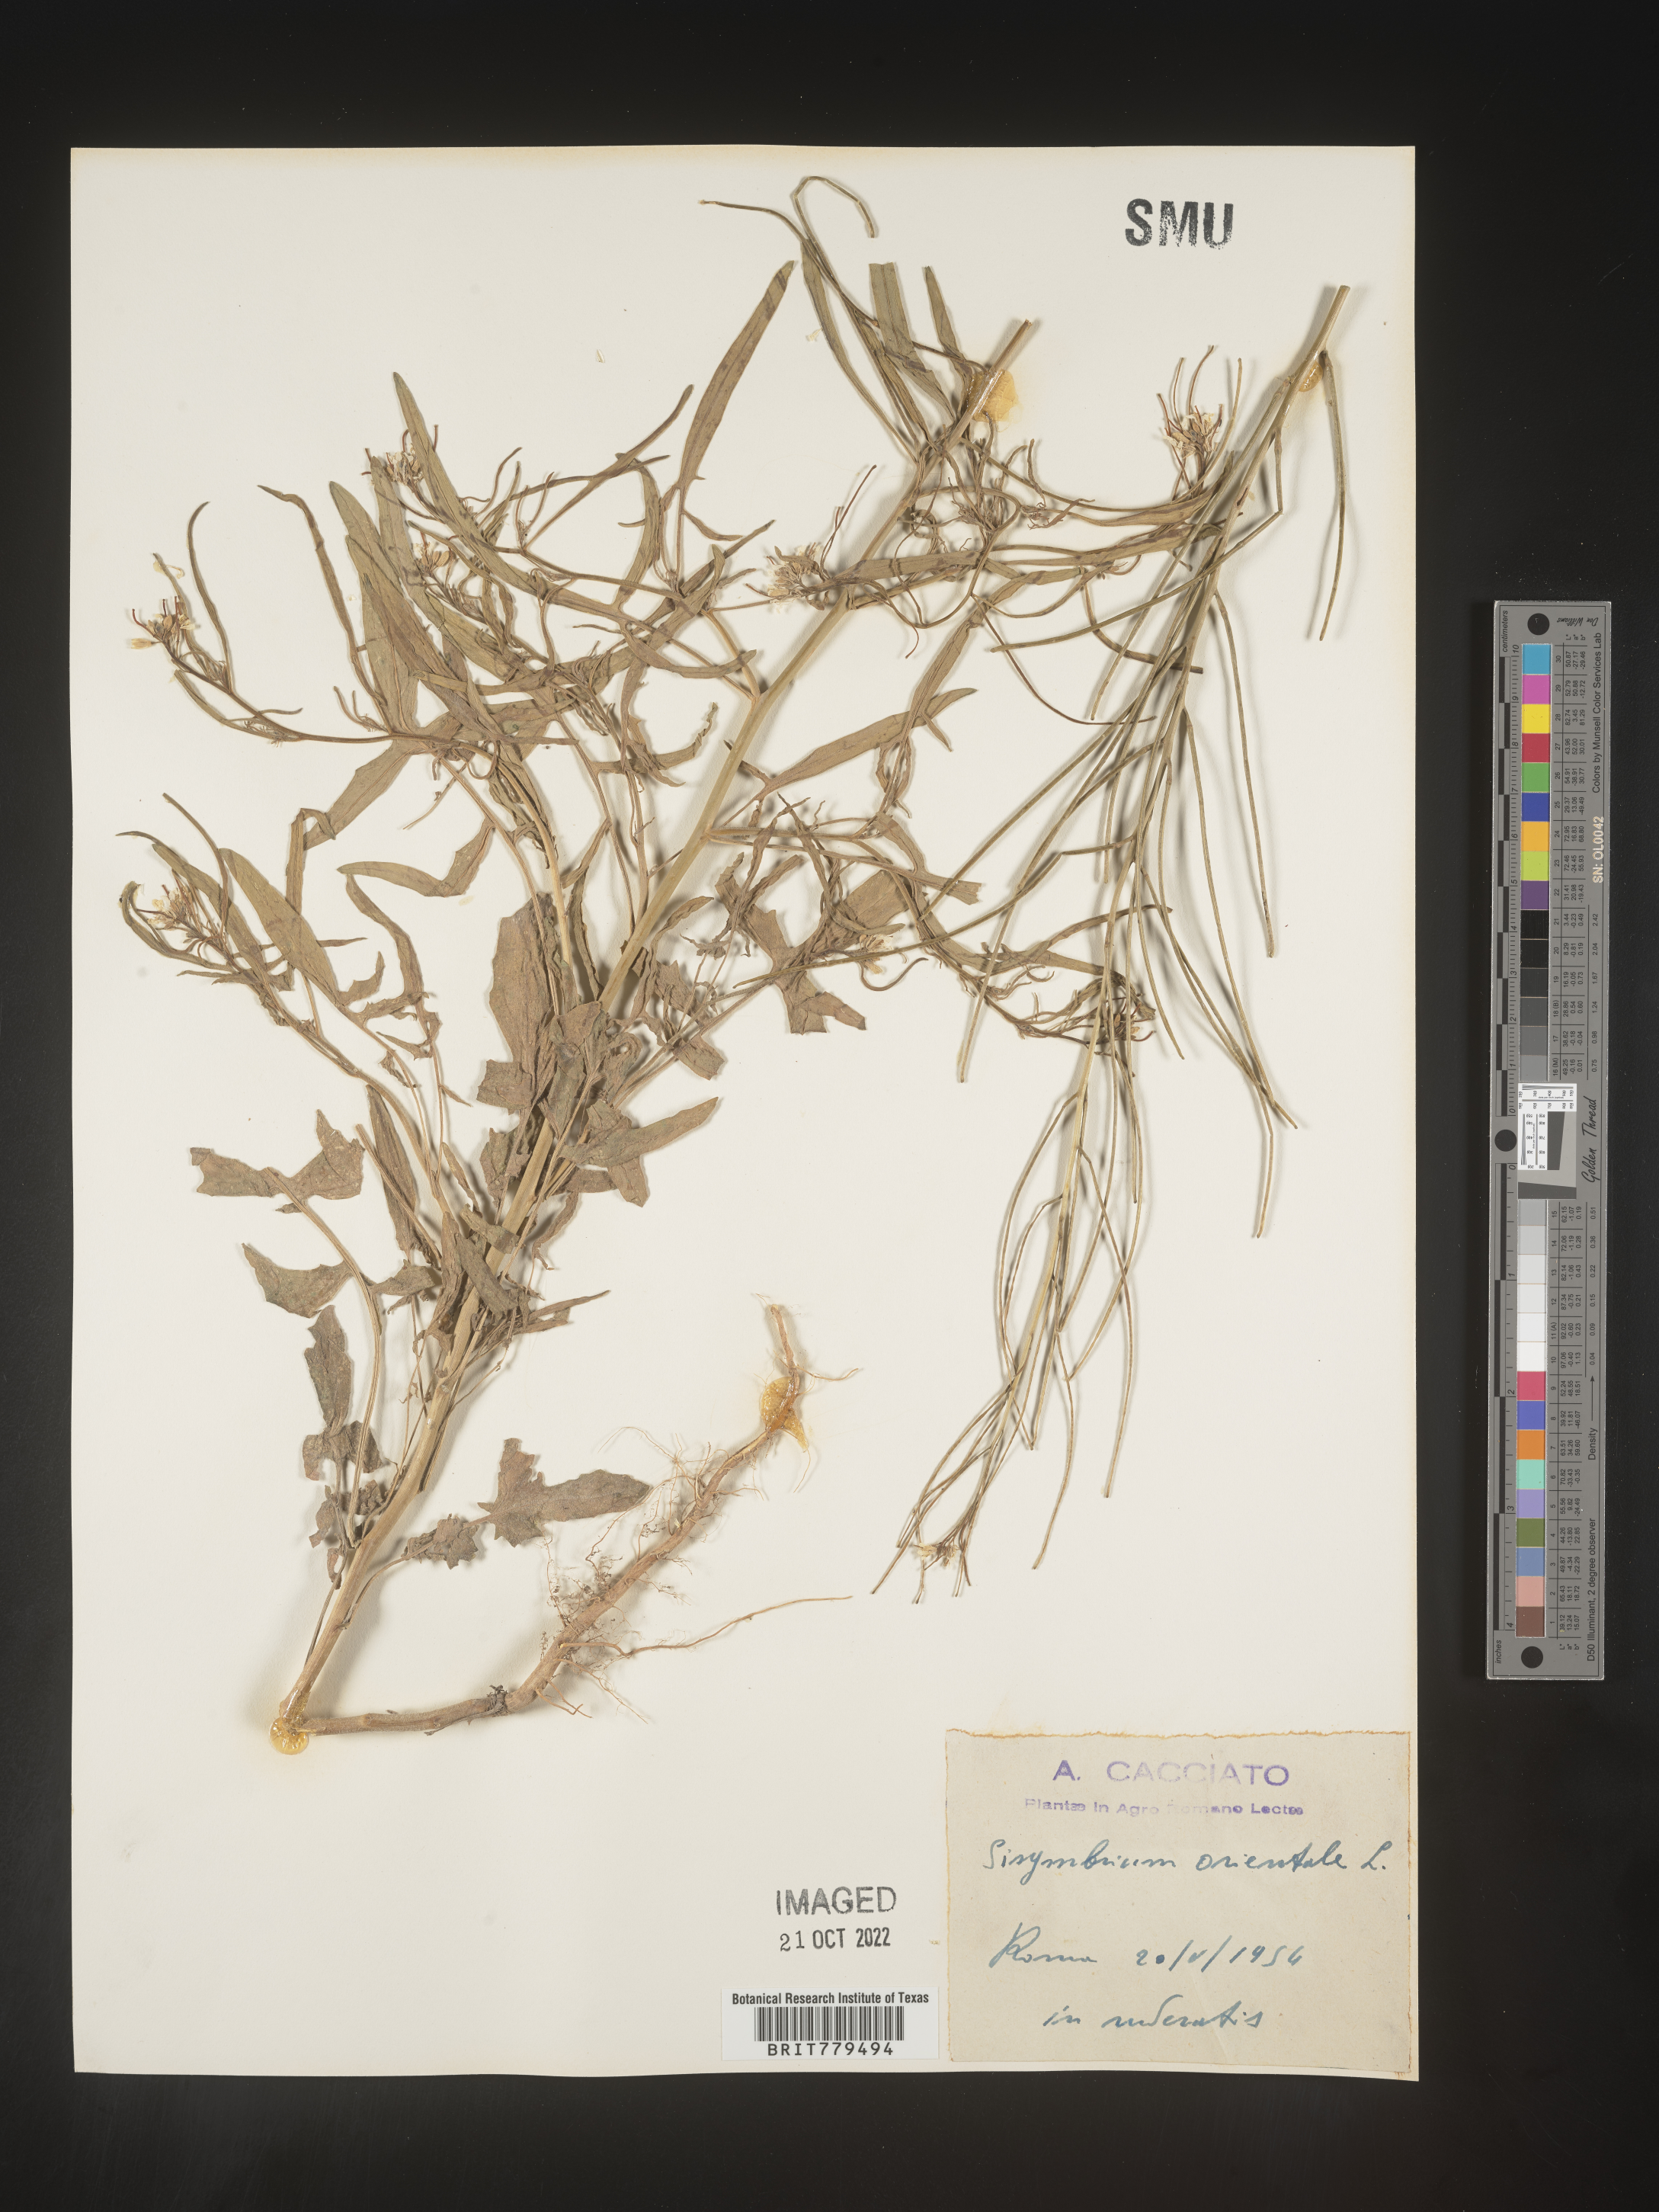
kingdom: Plantae
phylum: Tracheophyta
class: Magnoliopsida
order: Brassicales
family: Brassicaceae
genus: Sisymbrium
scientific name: Sisymbrium
